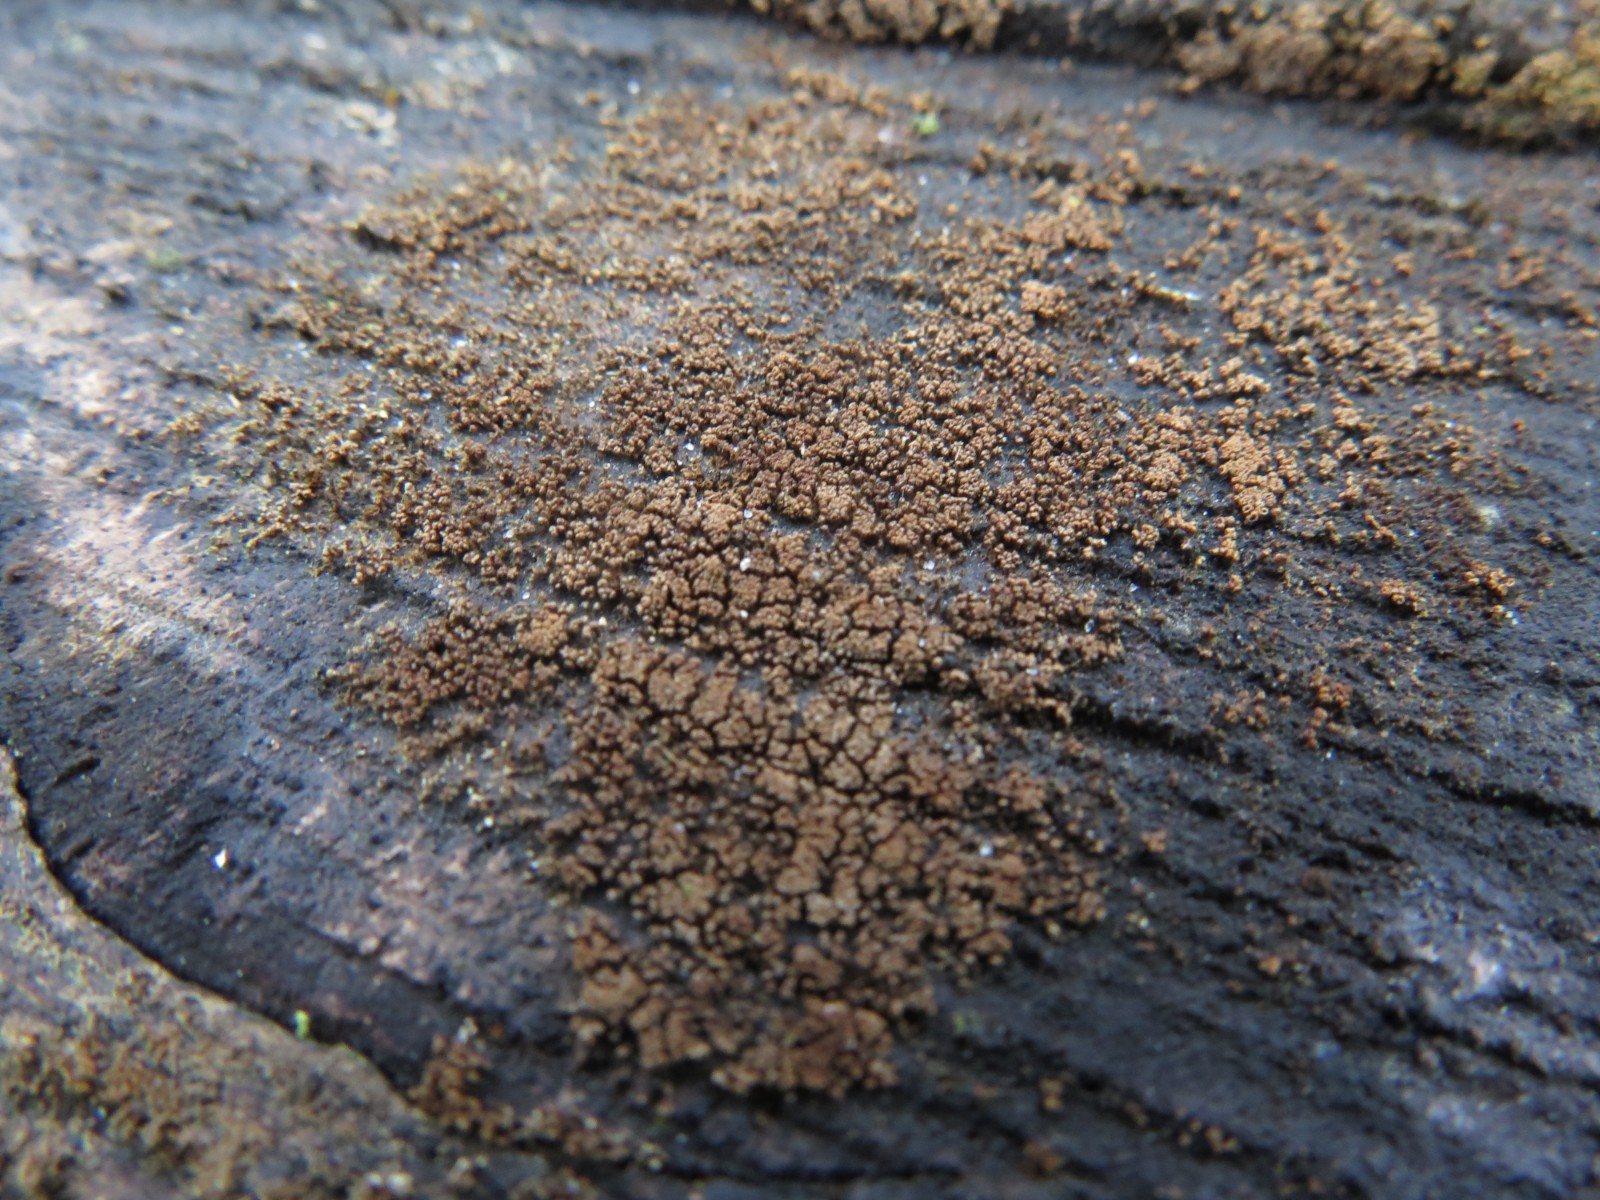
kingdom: Fungi
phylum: Basidiomycota
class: Agaricomycetes
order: Agaricales
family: Niaceae
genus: Merismodes
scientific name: Merismodes anomala
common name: almindelig læderskål
